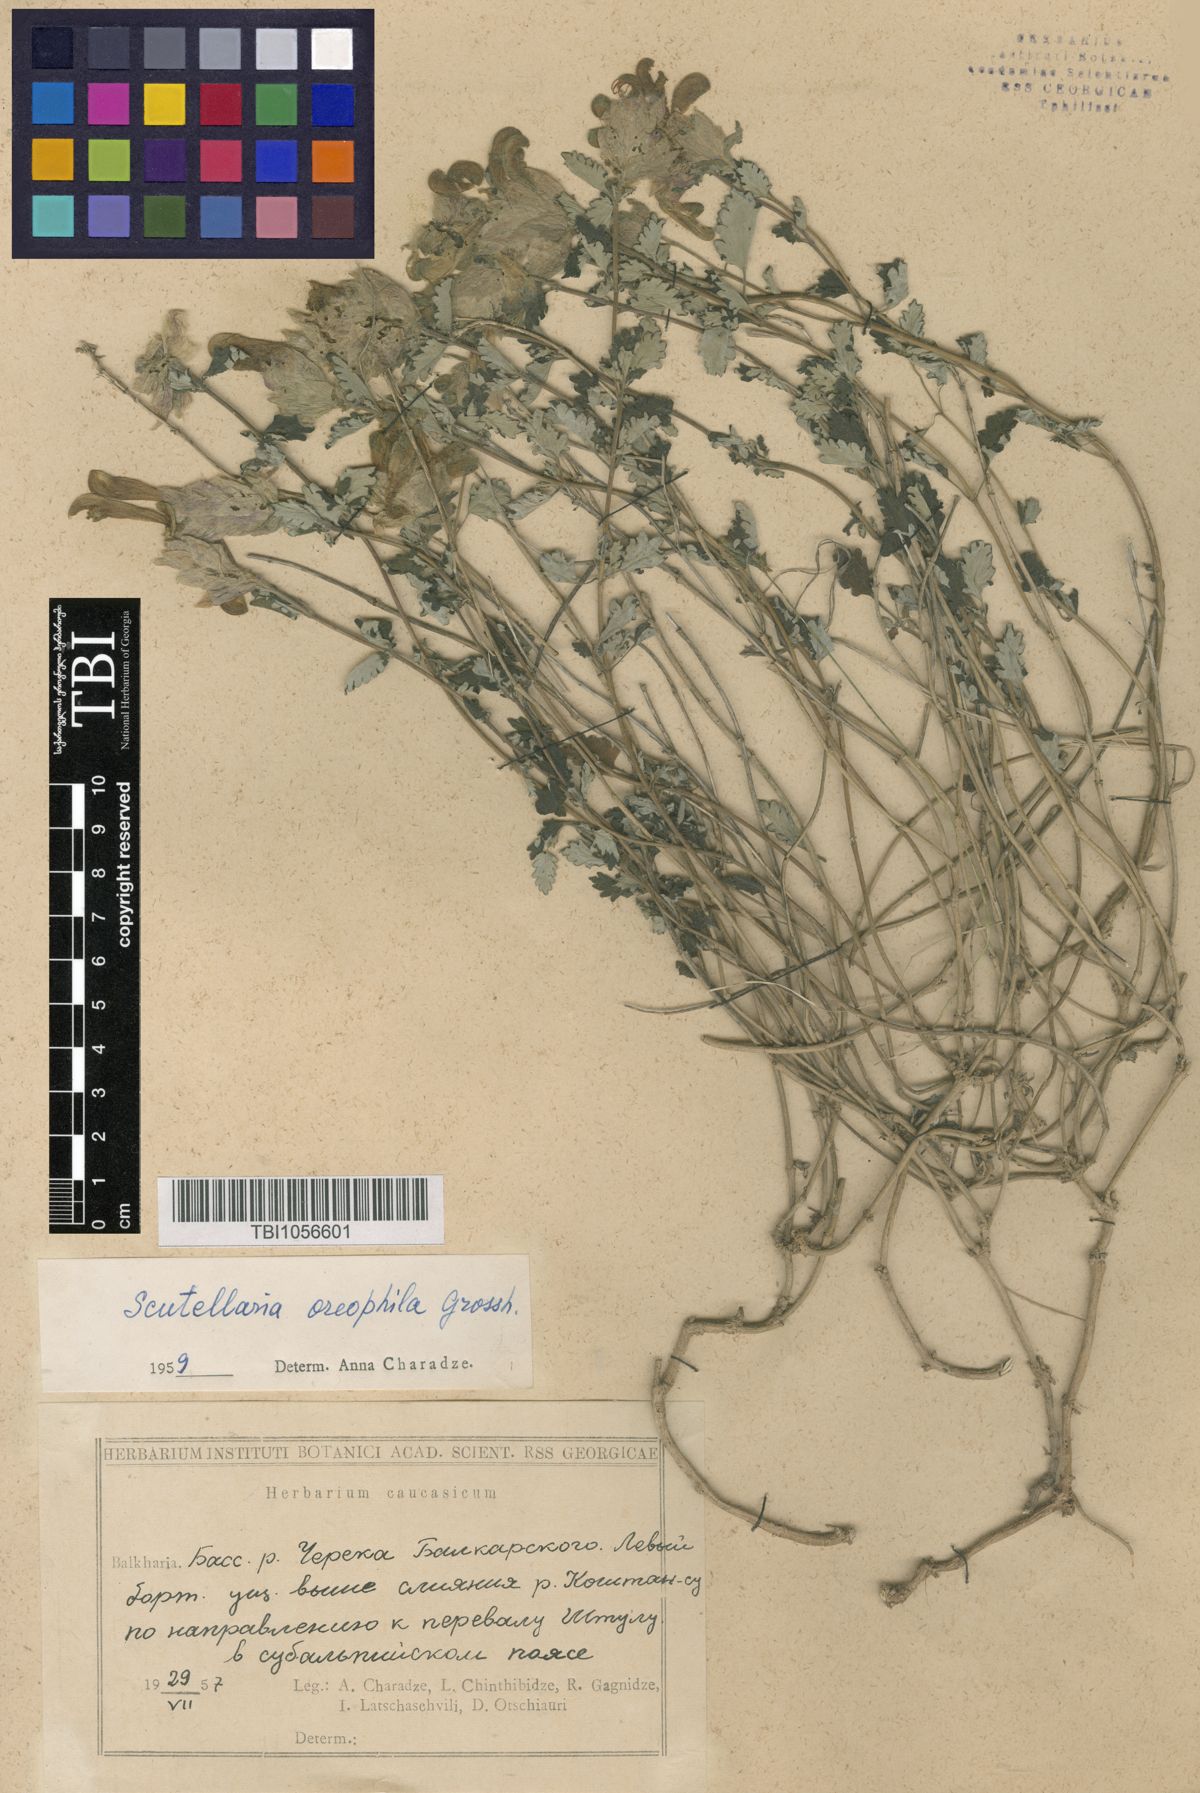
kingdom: Plantae
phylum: Tracheophyta
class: Magnoliopsida
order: Lamiales
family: Lamiaceae
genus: Scutellaria
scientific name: Scutellaria oreophila
